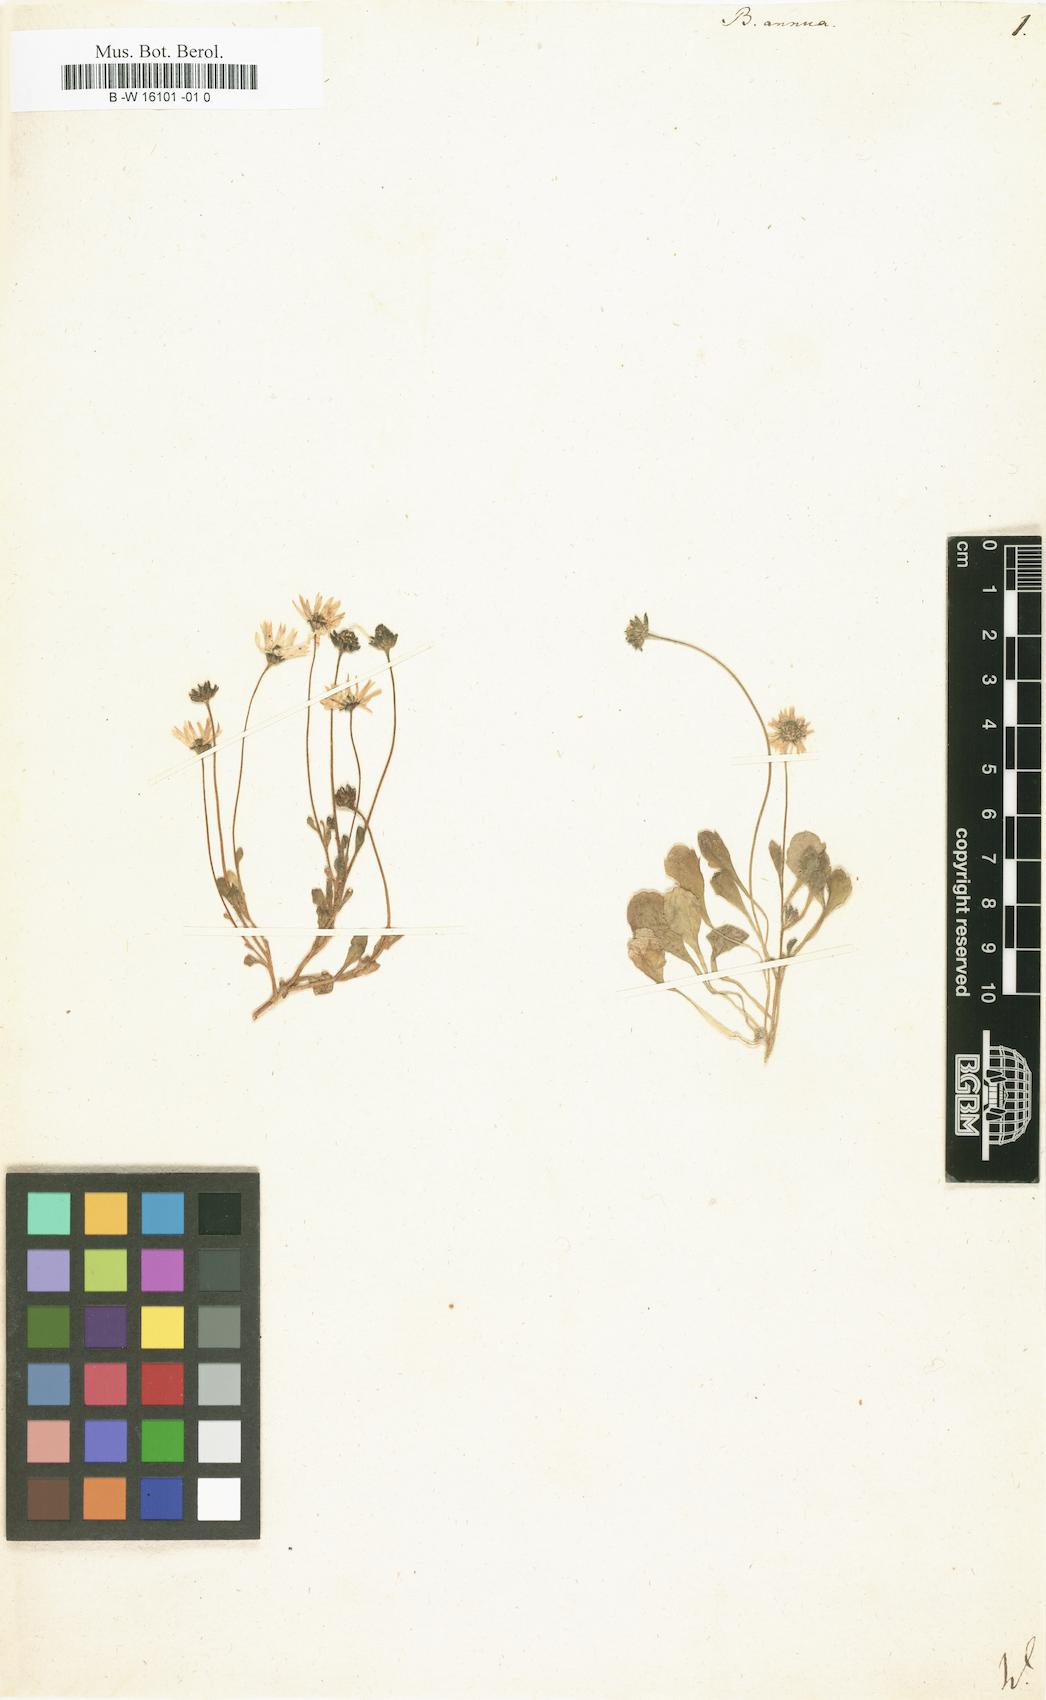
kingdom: Plantae
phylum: Tracheophyta
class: Magnoliopsida
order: Asterales
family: Asteraceae
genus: Bellis
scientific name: Bellis annua
